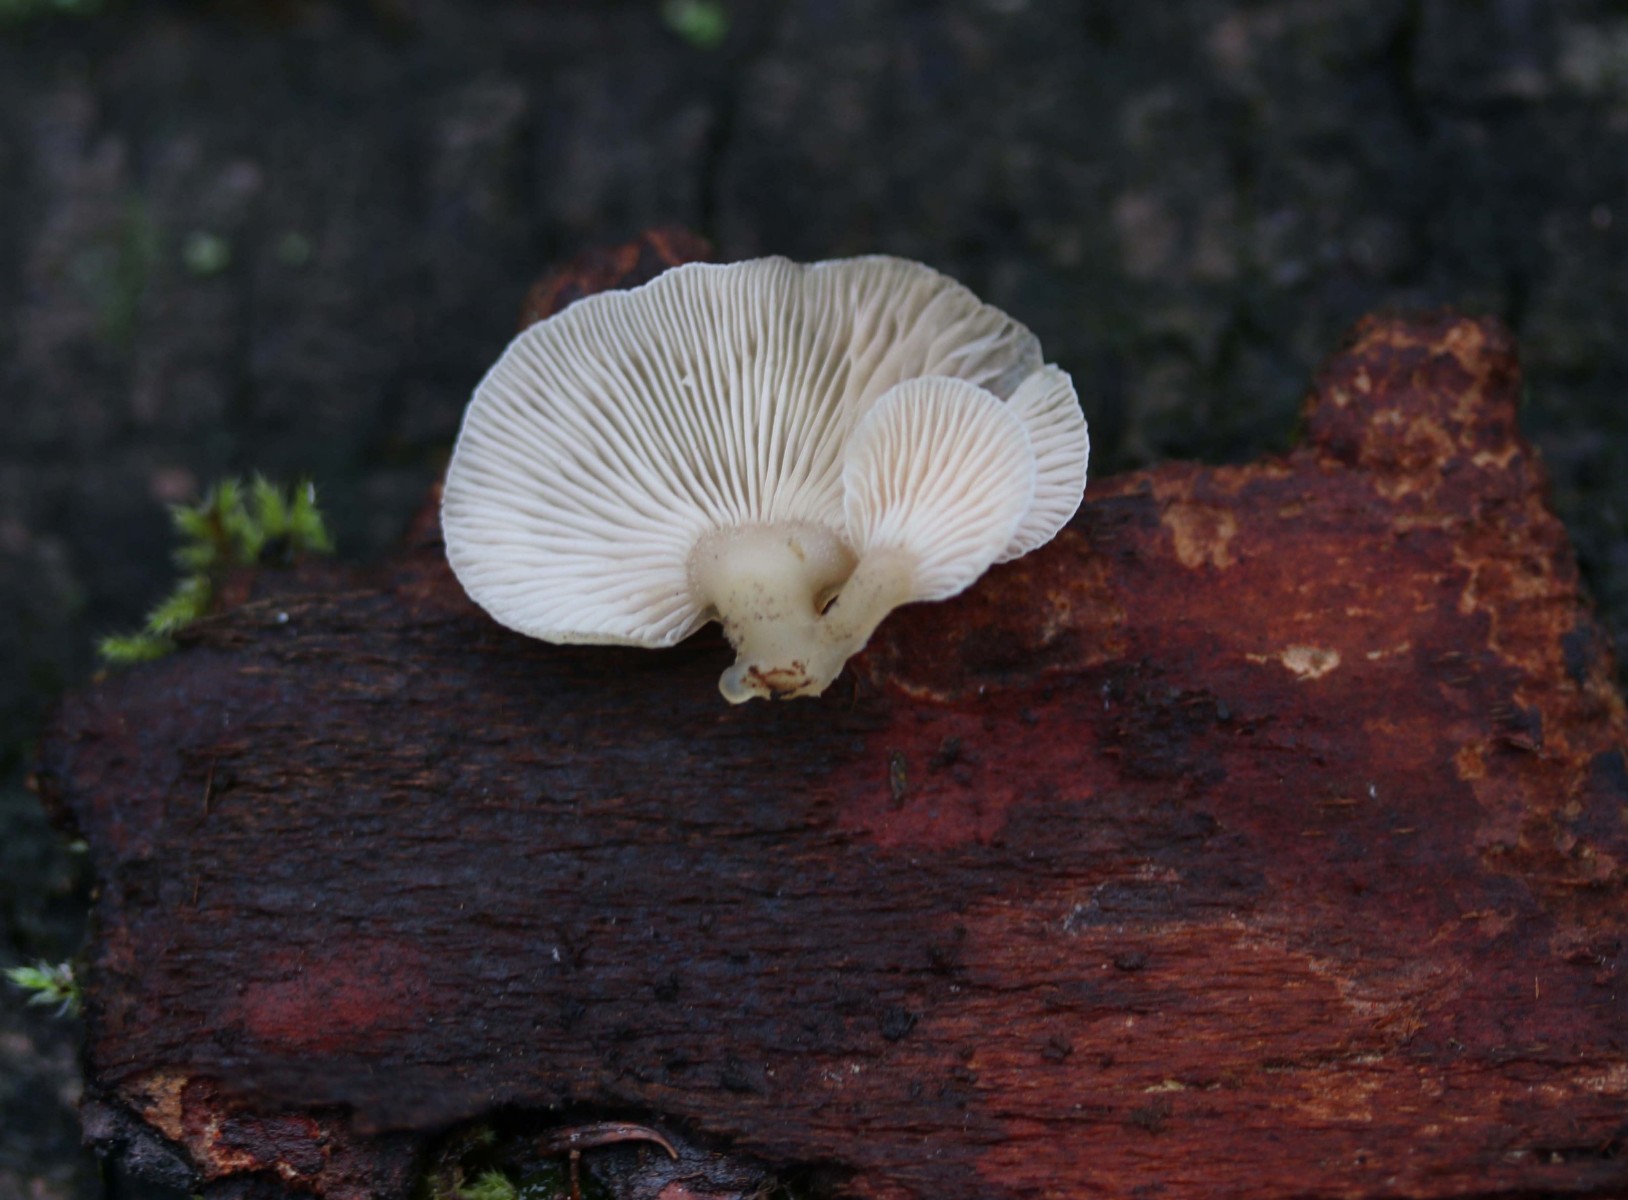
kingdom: Fungi
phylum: Basidiomycota
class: Agaricomycetes
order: Agaricales
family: Mycenaceae
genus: Panellus
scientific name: Panellus mitis
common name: mild epaulethat
